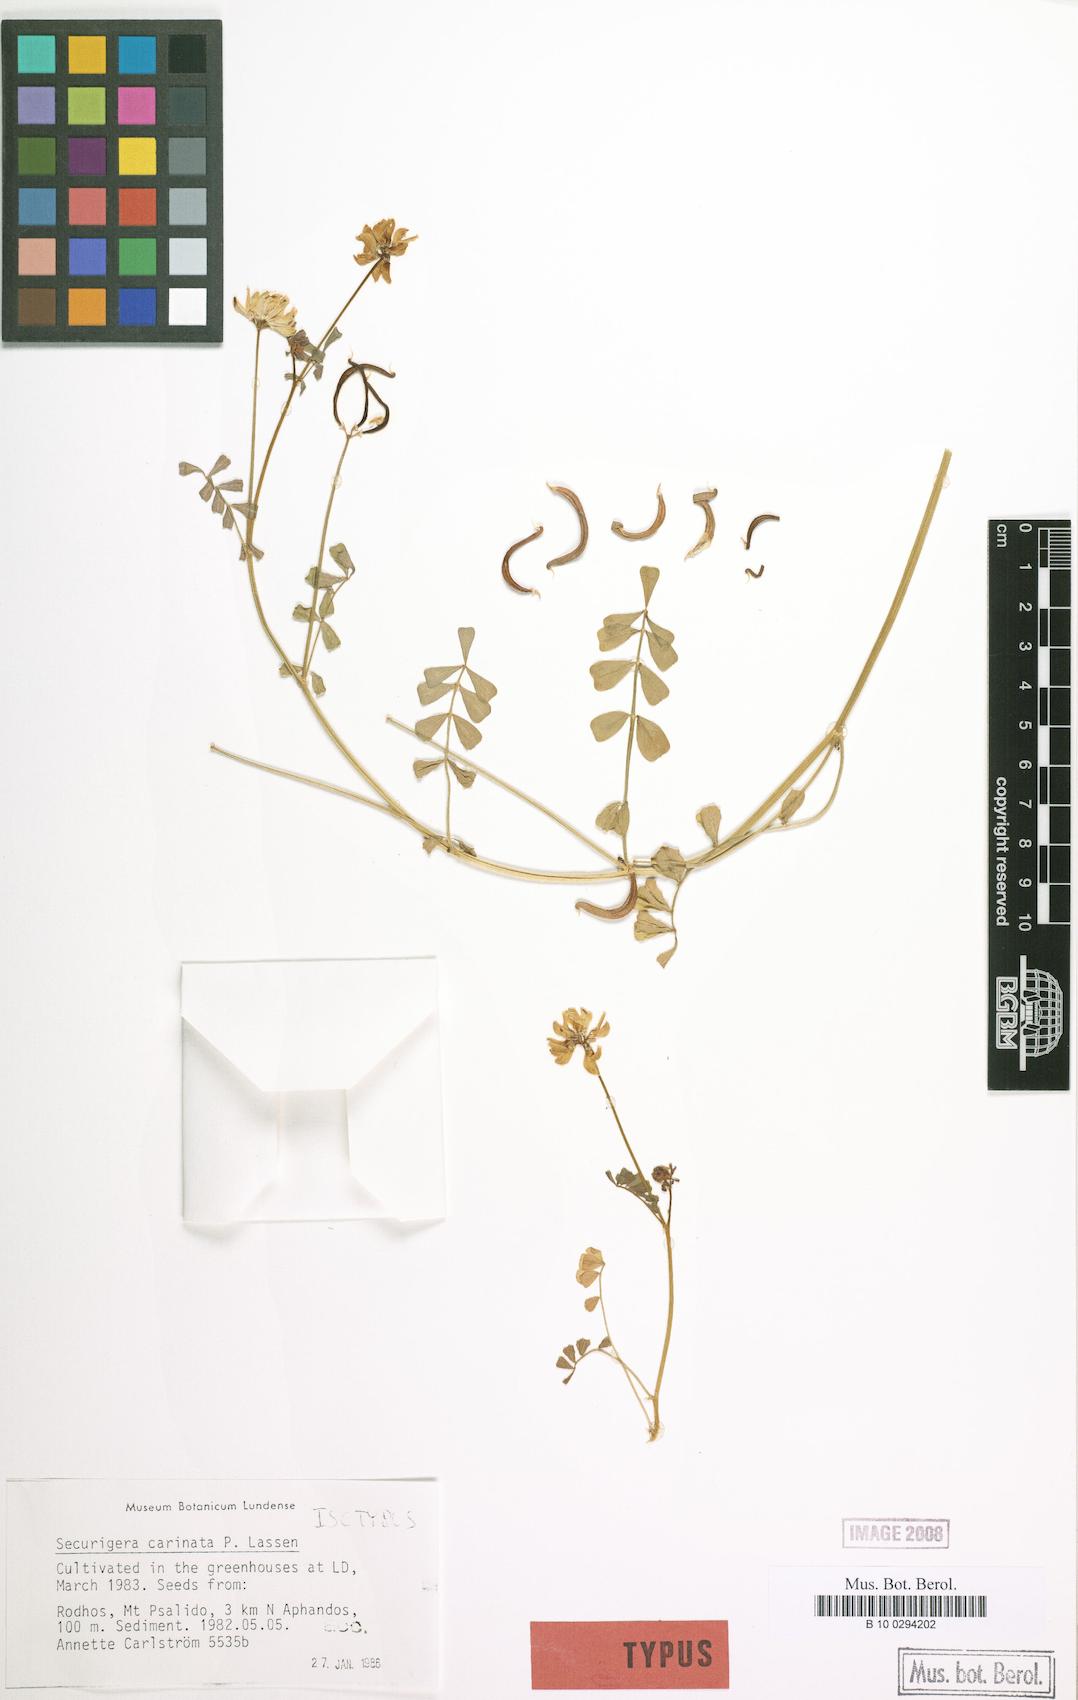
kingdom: Plantae
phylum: Tracheophyta
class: Magnoliopsida
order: Fabales
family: Fabaceae
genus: Coronilla
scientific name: Coronilla carinata
